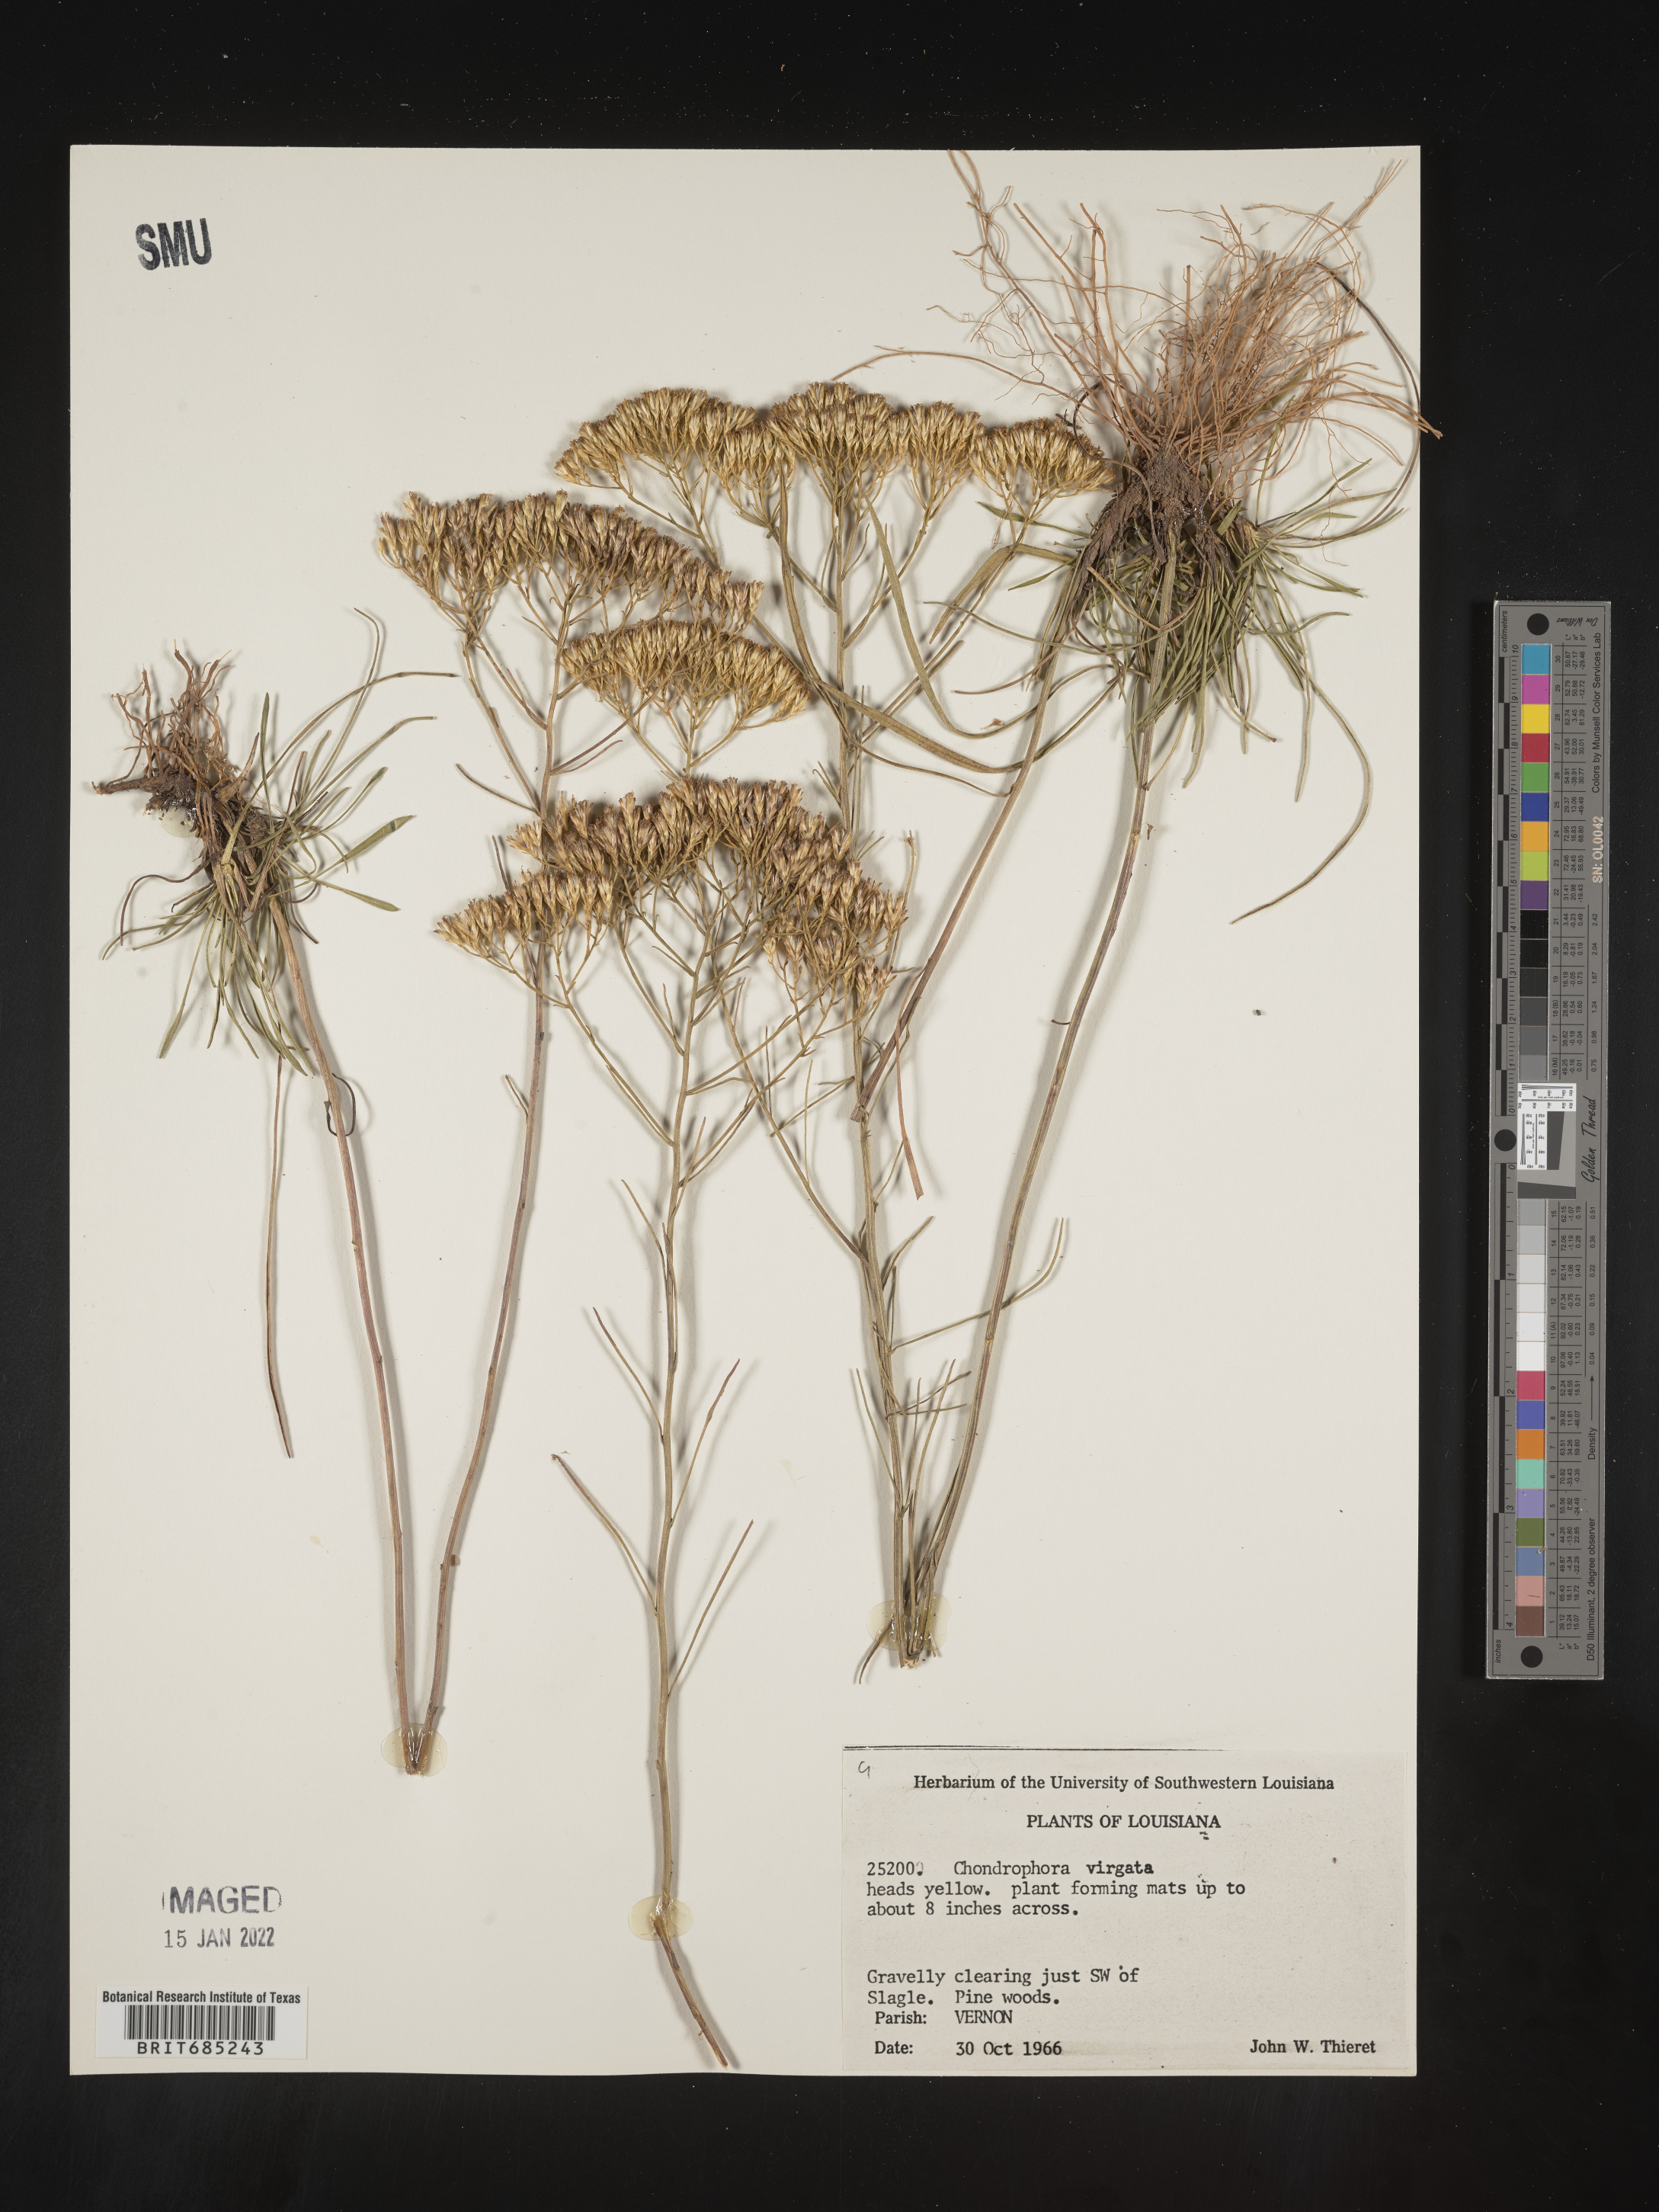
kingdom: Plantae
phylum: Tracheophyta
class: Magnoliopsida
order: Asterales
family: Asteraceae
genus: Bigelowia
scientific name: Bigelowia nuttallii
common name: Nuttall's rayless-goldenrod
